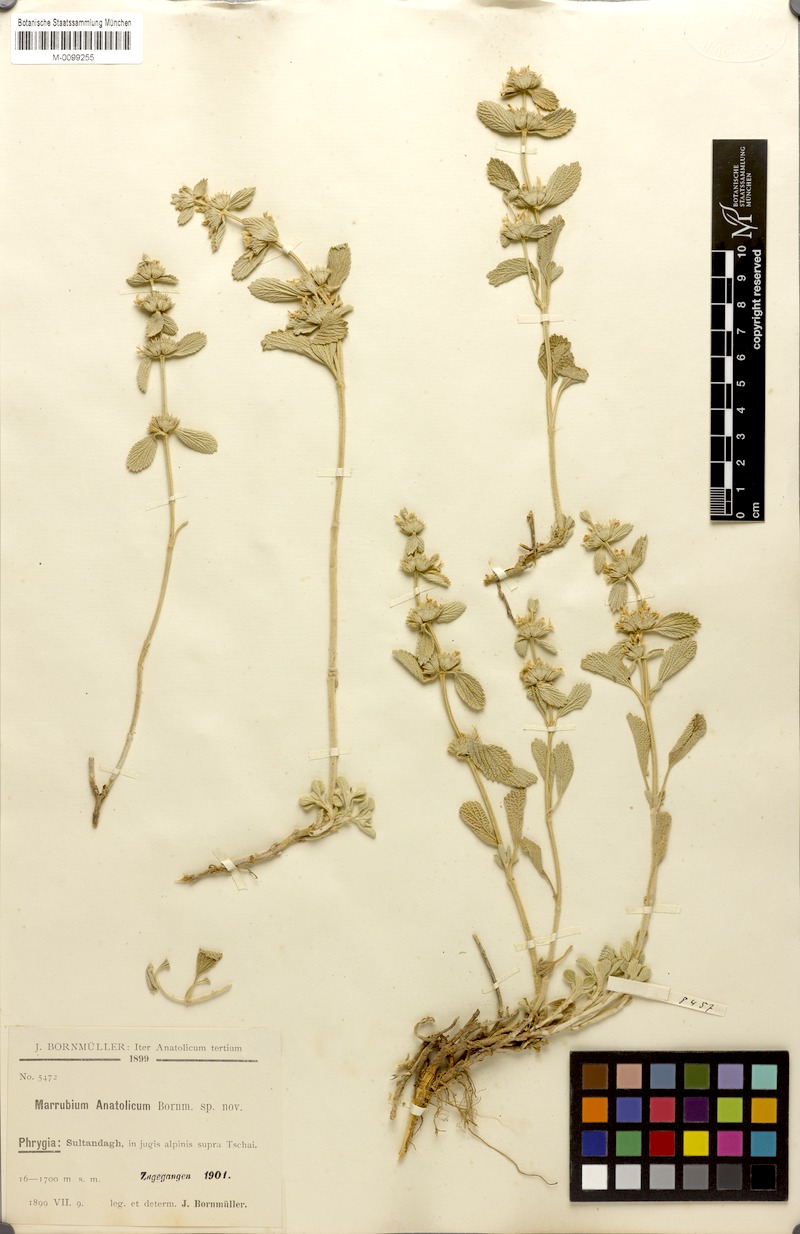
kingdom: Plantae
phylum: Tracheophyta
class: Magnoliopsida
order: Lamiales
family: Lamiaceae
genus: Marrubium
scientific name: Marrubium parviflorum
